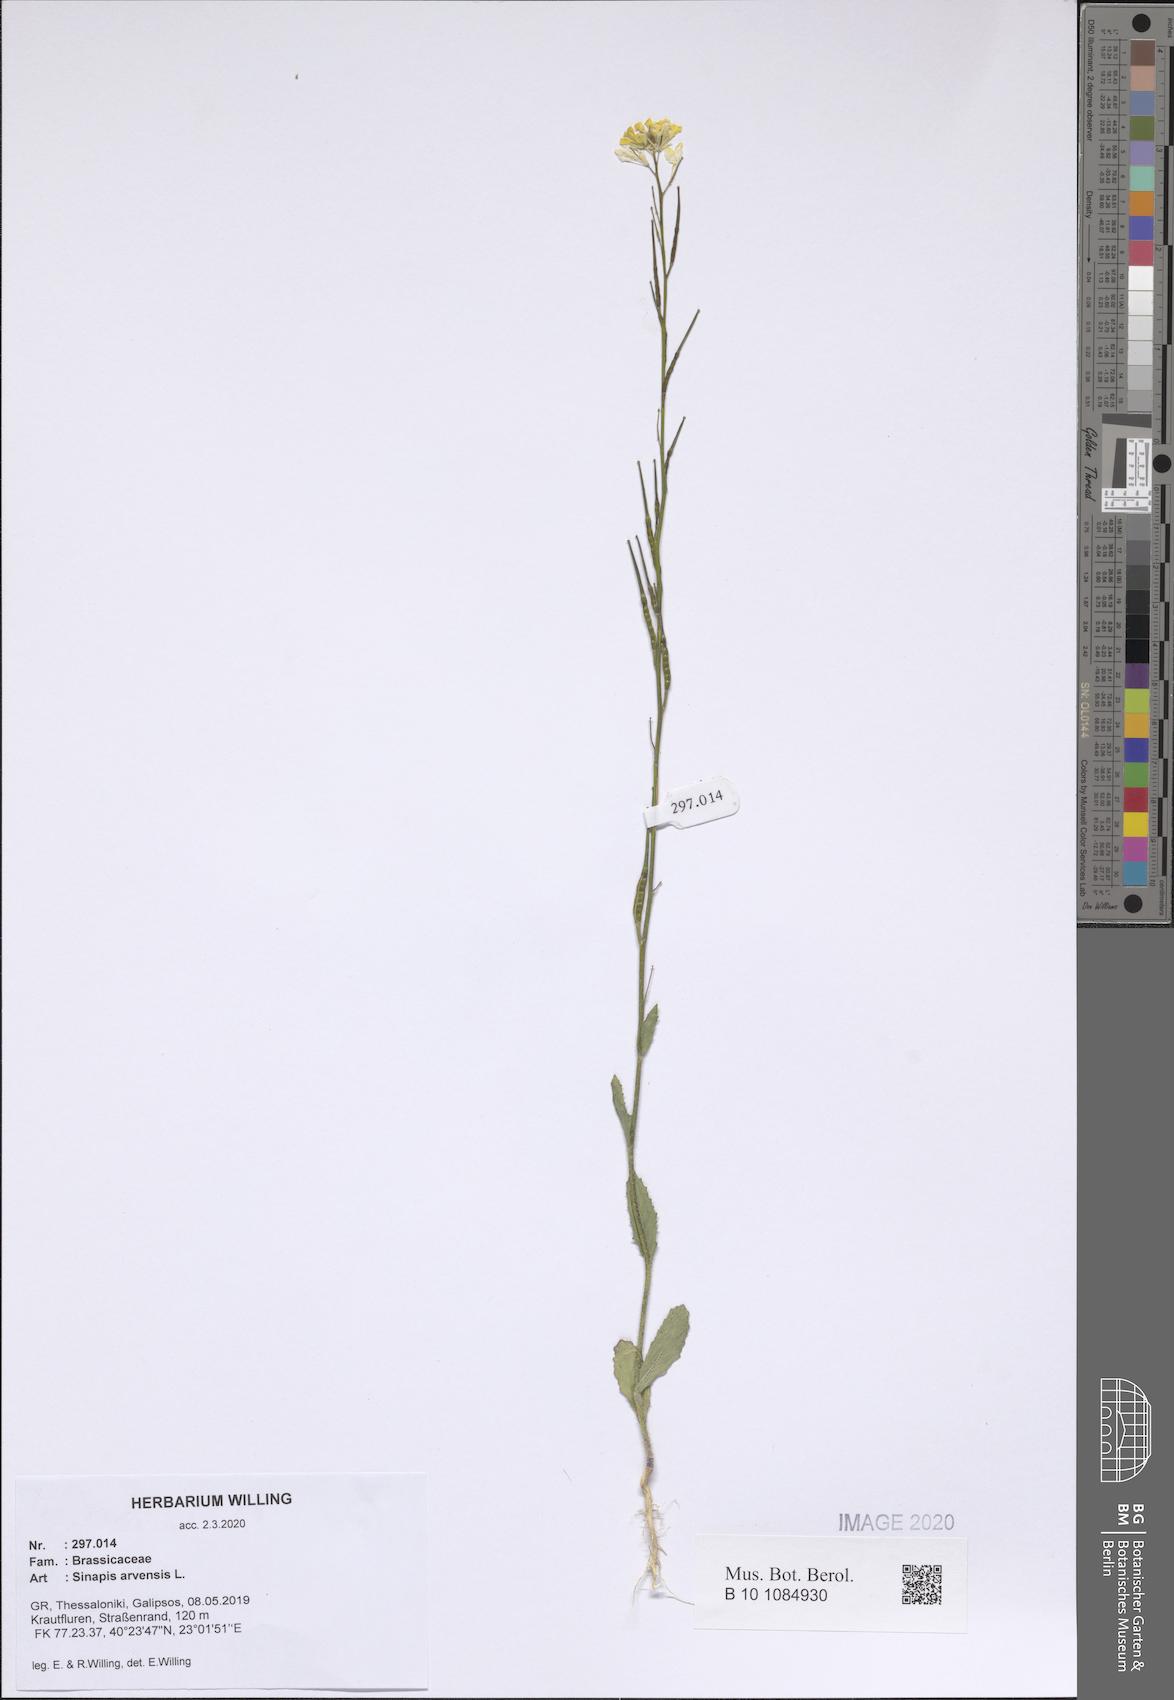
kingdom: Plantae
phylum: Tracheophyta
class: Magnoliopsida
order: Brassicales
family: Brassicaceae
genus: Sinapis
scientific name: Sinapis arvensis
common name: Charlock
